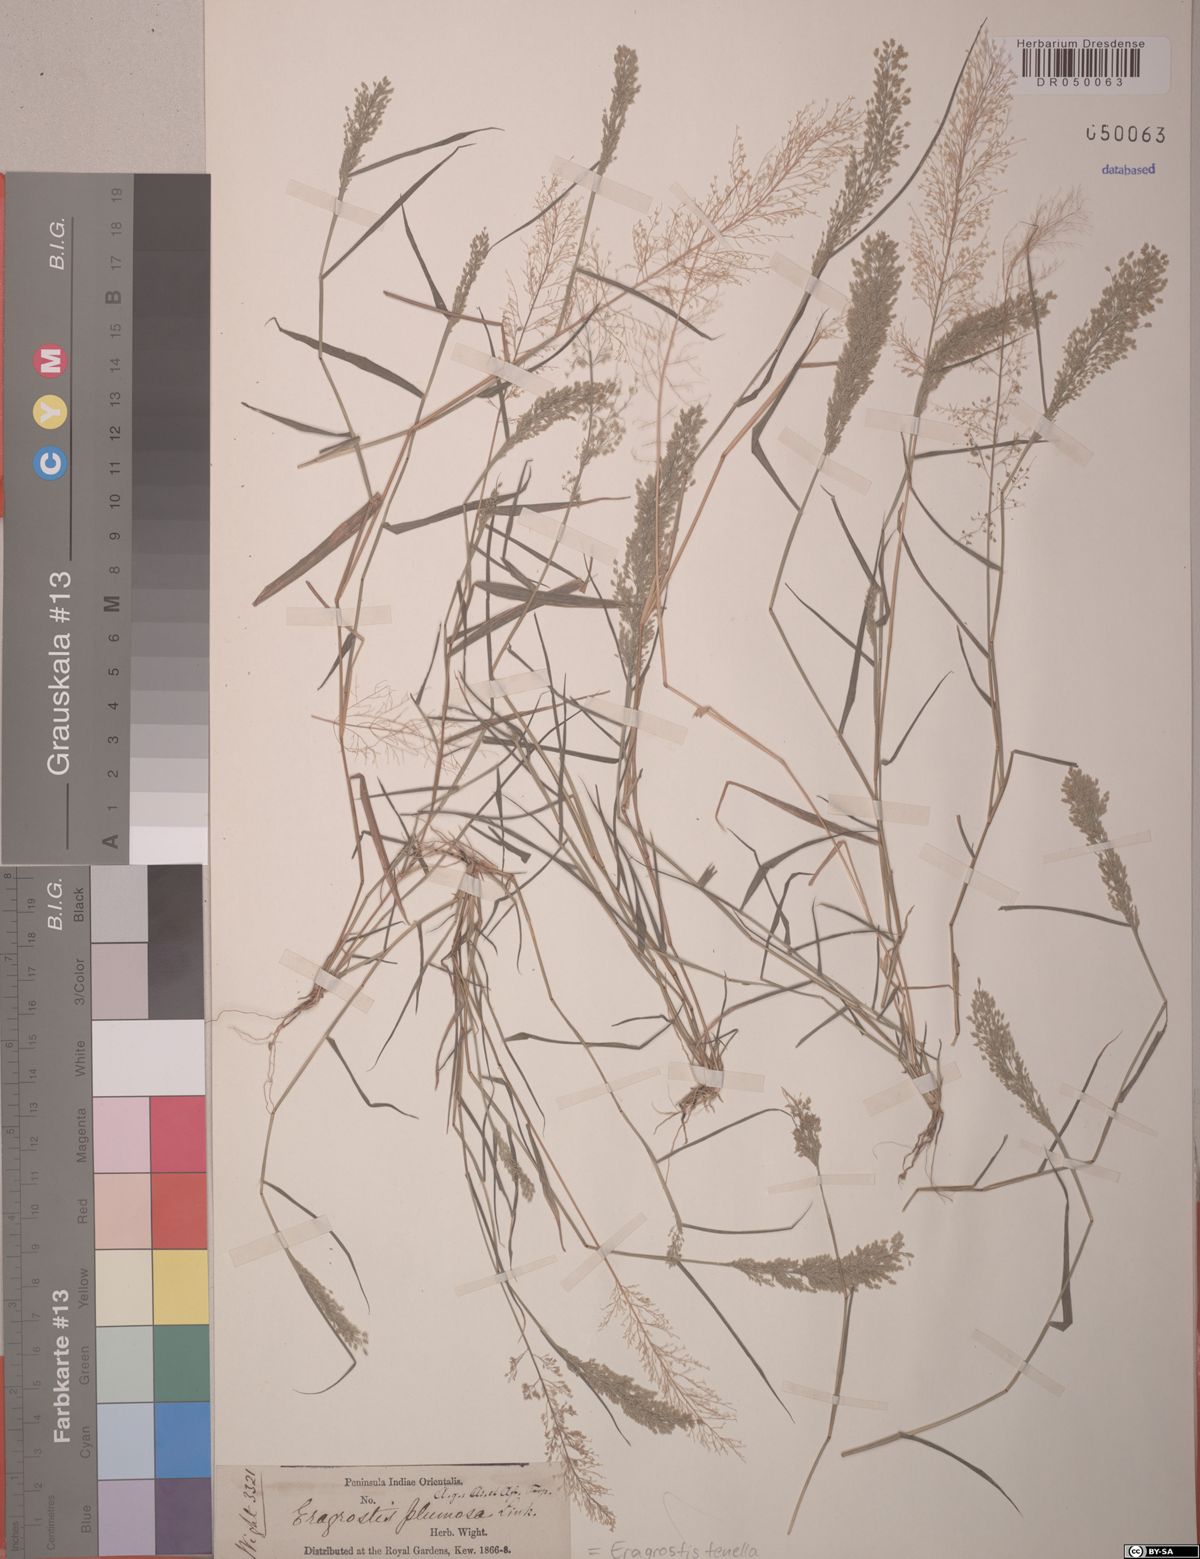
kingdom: Plantae
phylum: Tracheophyta
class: Liliopsida
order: Poales
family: Poaceae
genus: Eragrostis
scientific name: Eragrostis tenella
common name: Japanese lovegrass
